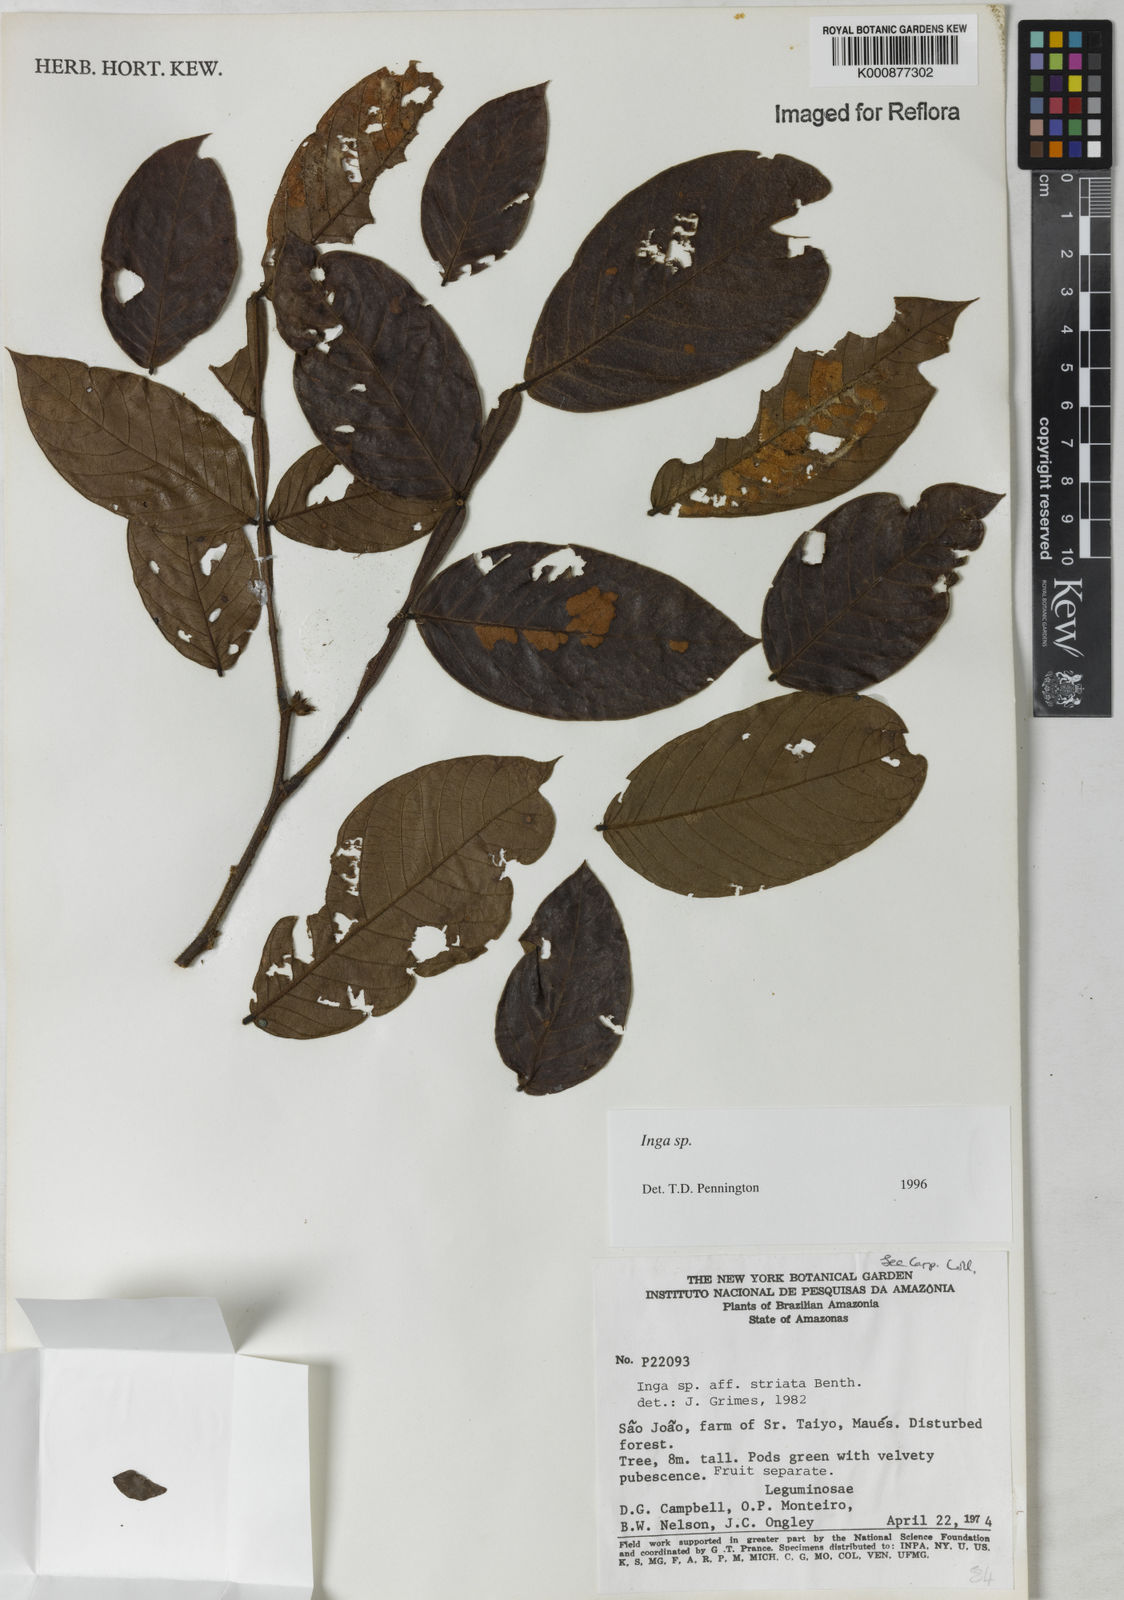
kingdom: Plantae
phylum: Tracheophyta
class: Magnoliopsida
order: Fabales
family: Fabaceae
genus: Inga
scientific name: Inga
